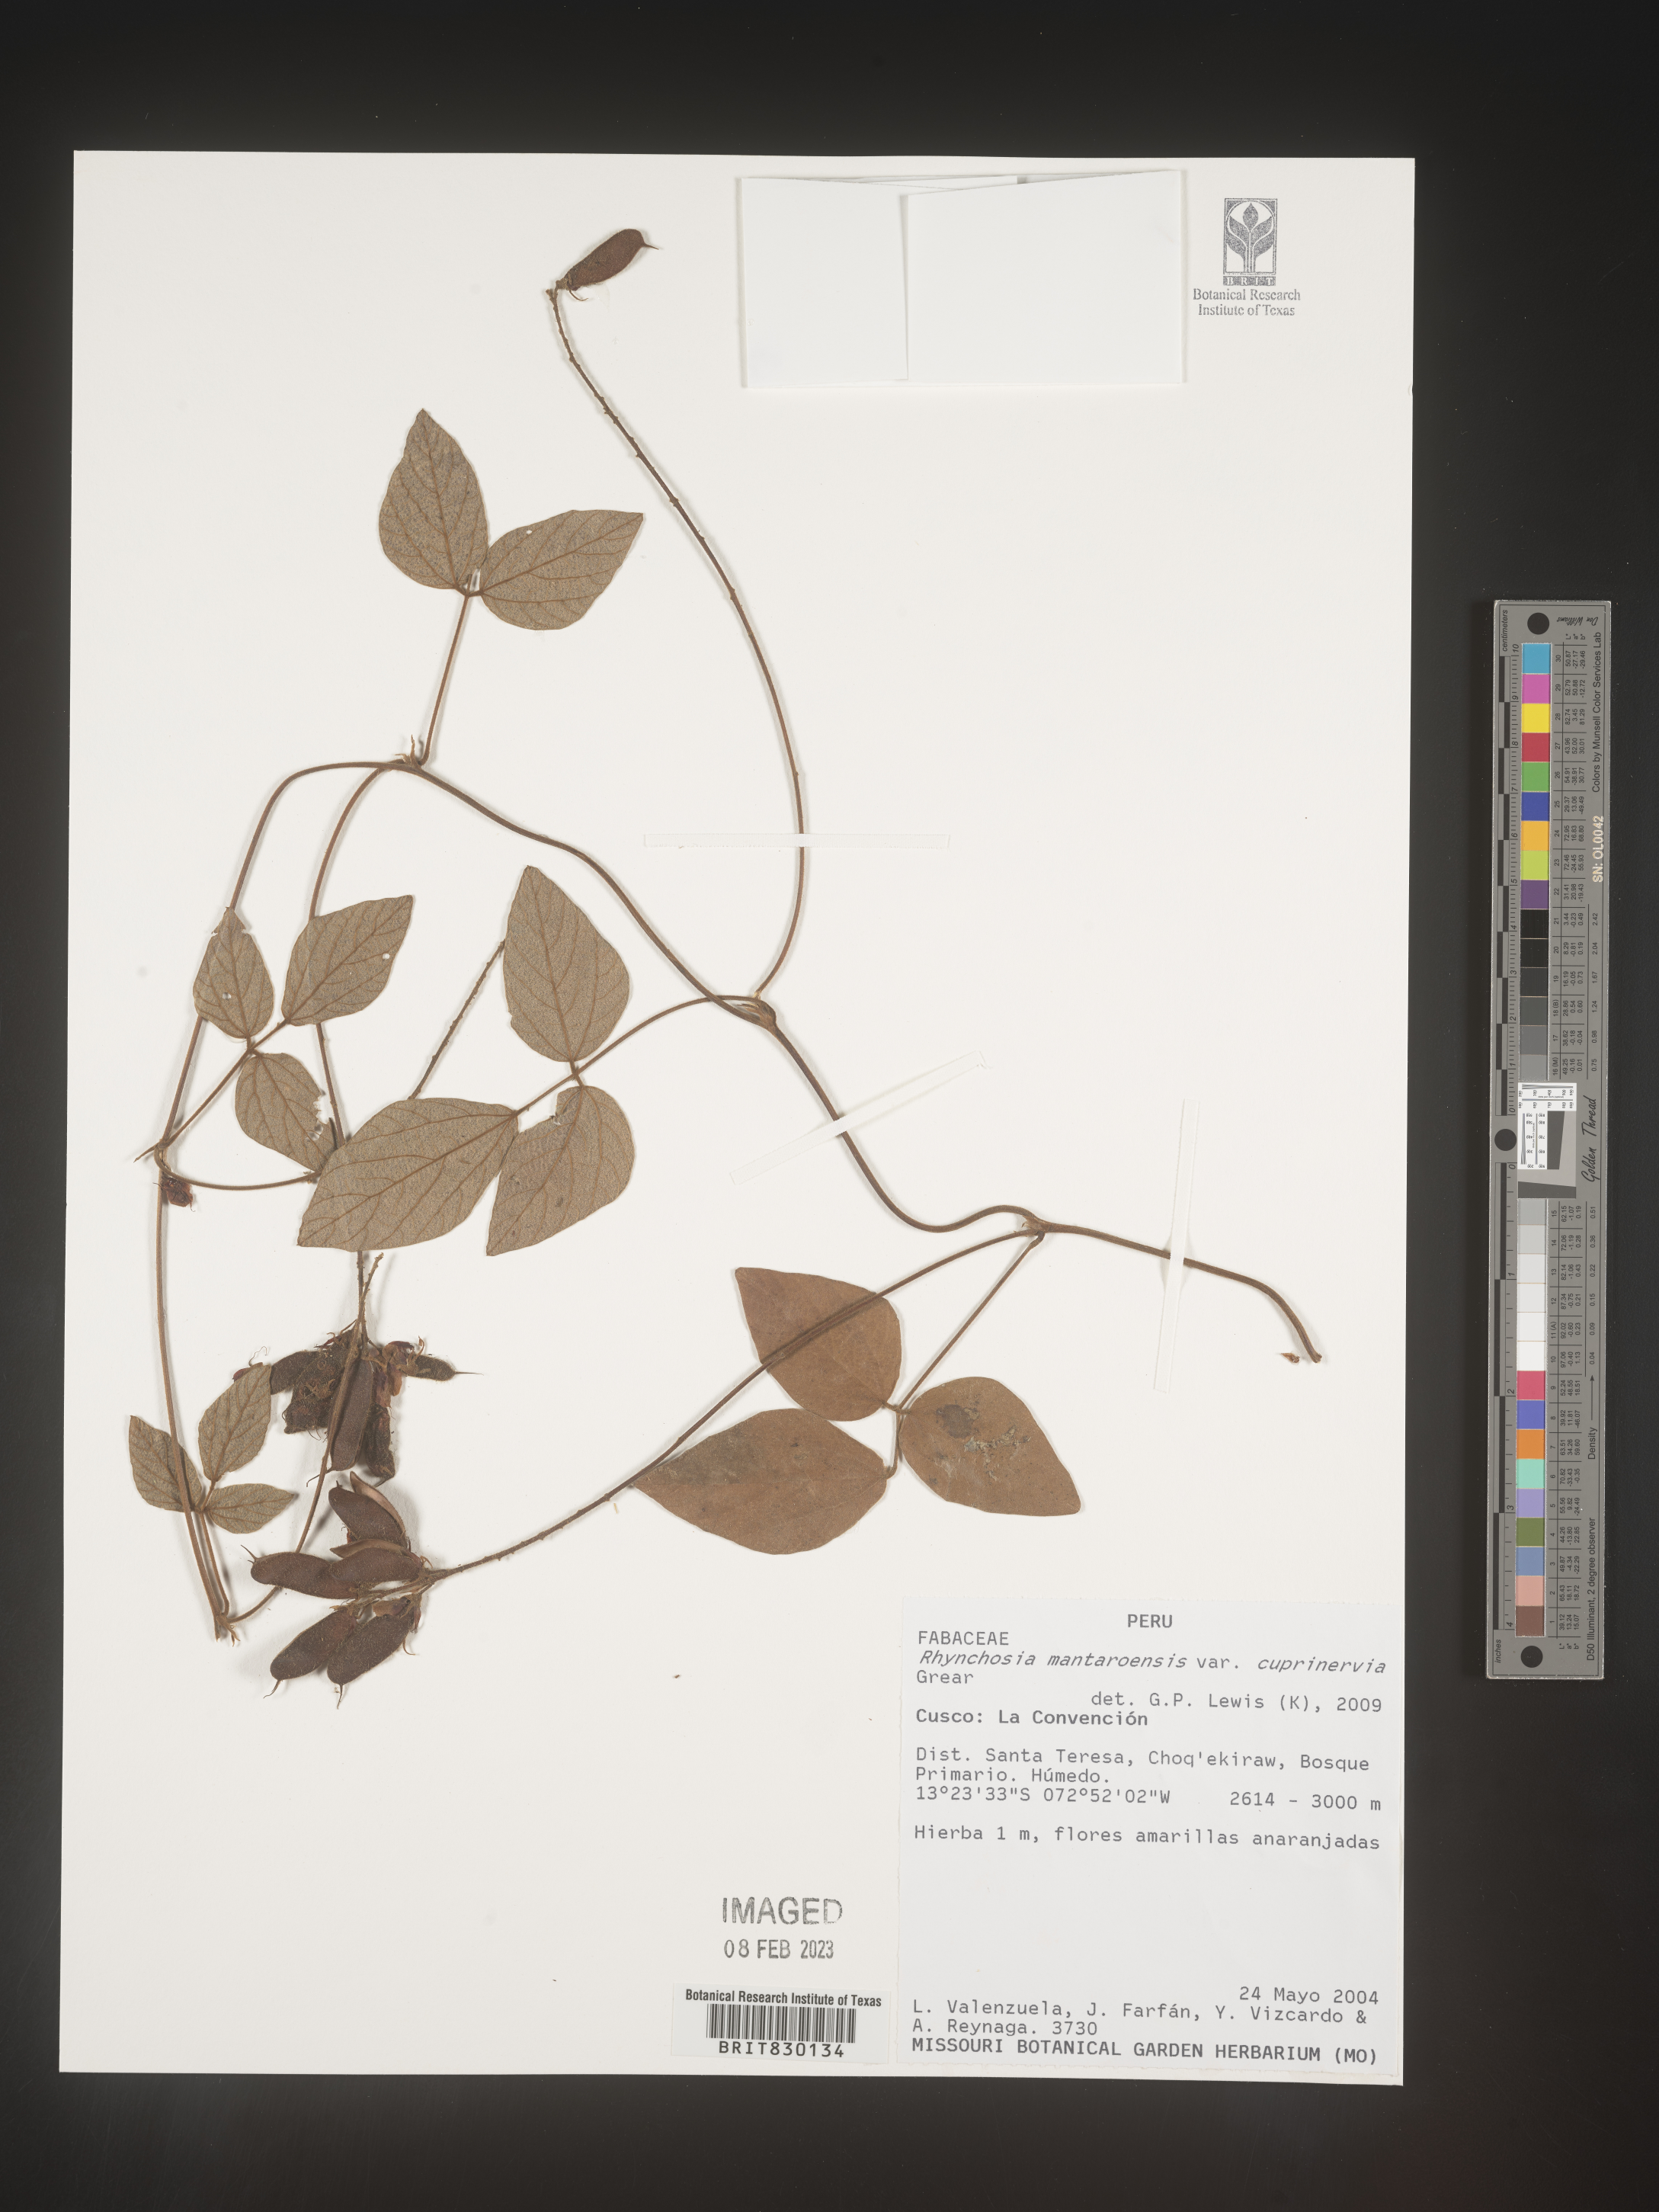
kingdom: Plantae
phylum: Tracheophyta
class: Magnoliopsida
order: Fabales
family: Fabaceae
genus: Rhynchosia
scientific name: Rhynchosia
